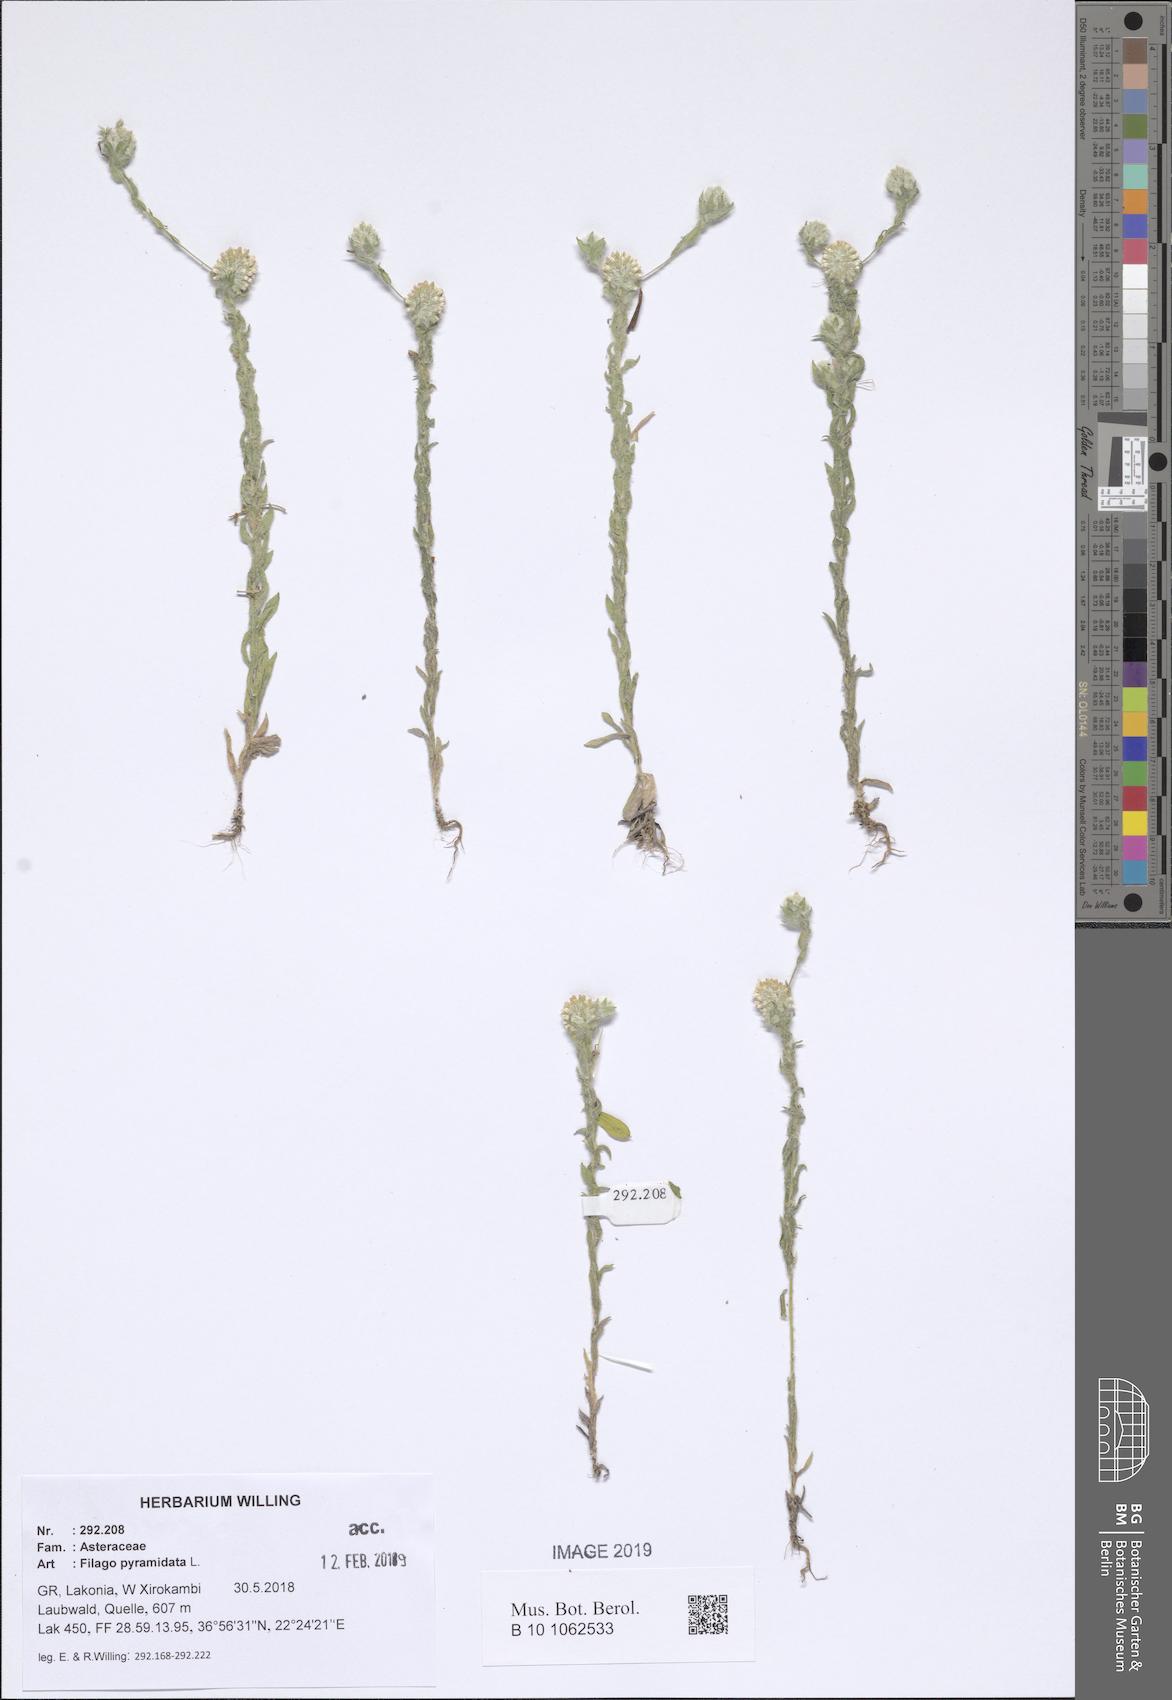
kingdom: Plantae
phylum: Tracheophyta
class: Magnoliopsida
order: Asterales
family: Asteraceae
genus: Filago
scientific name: Filago pyramidata
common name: Broad-leaved cudweed
